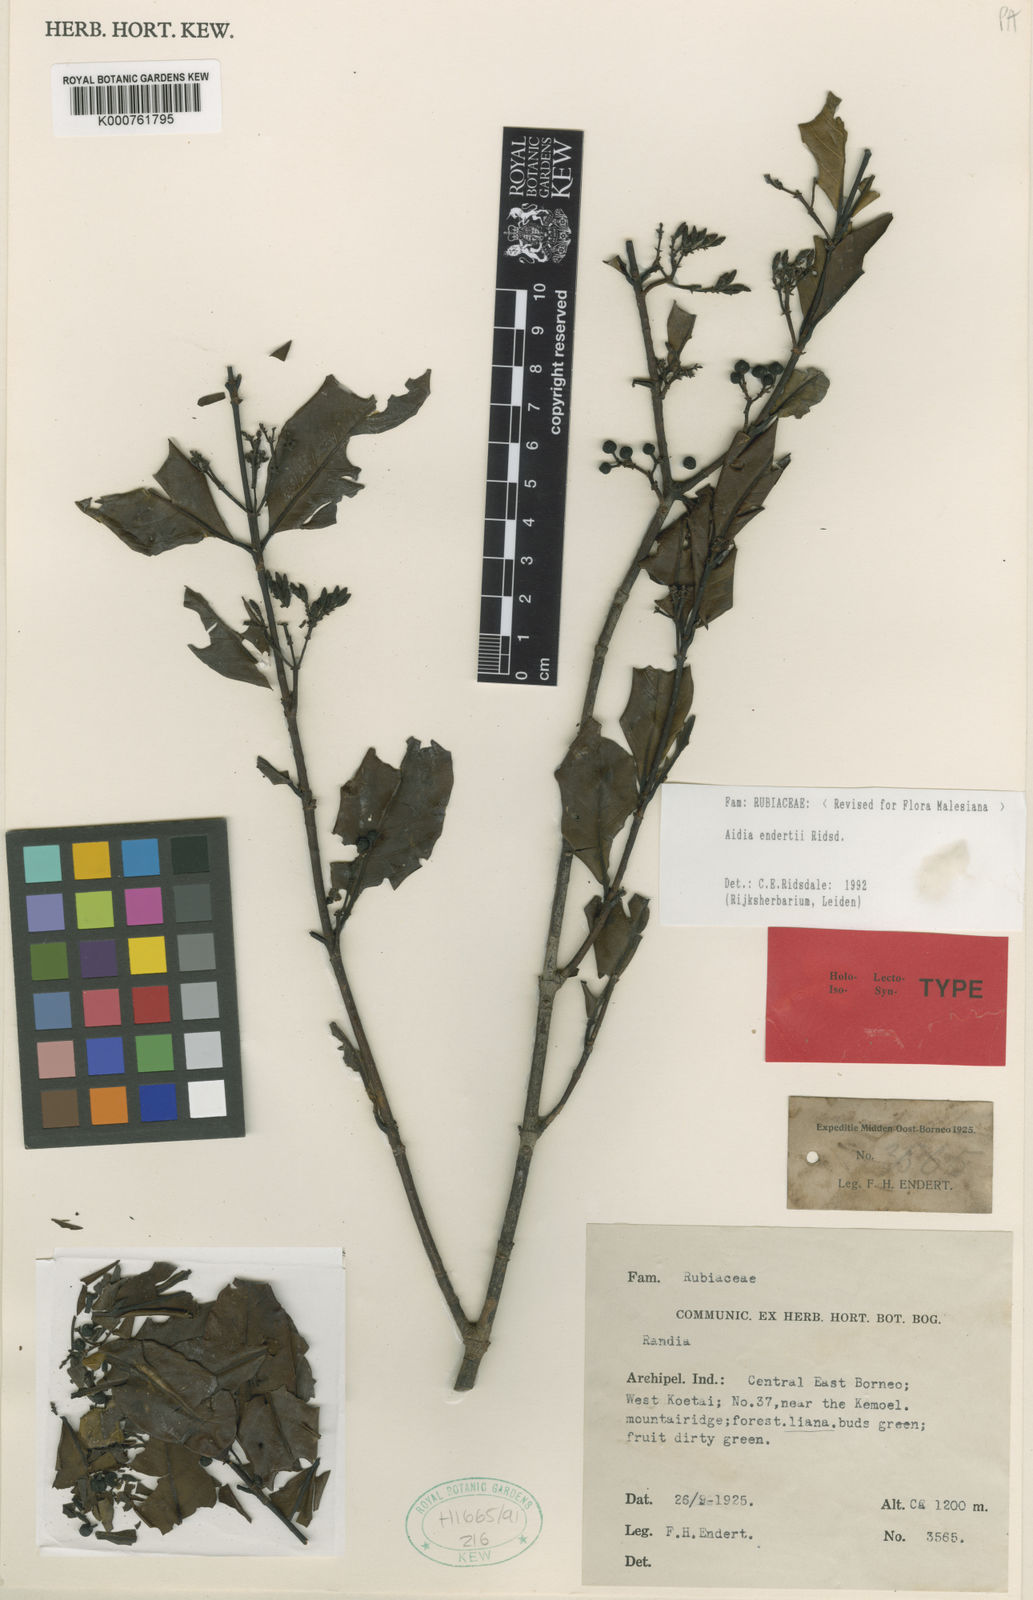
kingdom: Plantae
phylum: Tracheophyta
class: Magnoliopsida
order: Gentianales
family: Rubiaceae
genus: Aidia
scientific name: Aidia endertii
